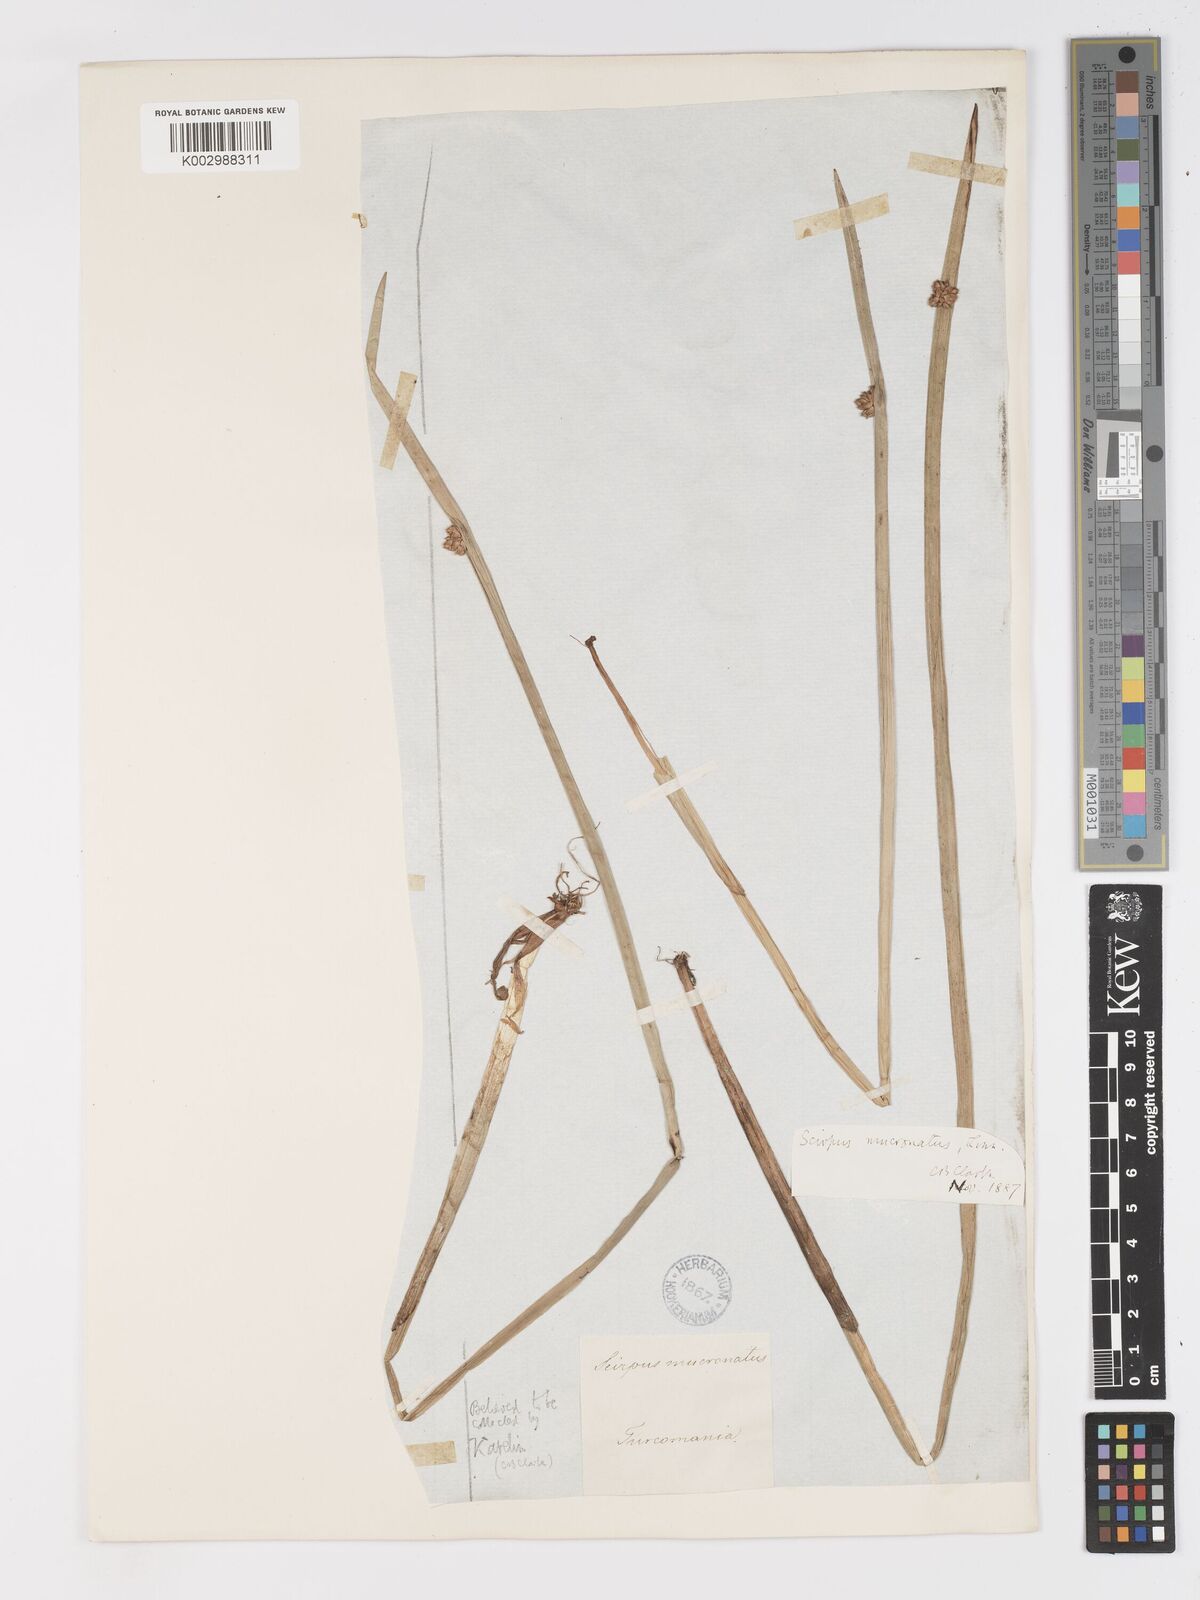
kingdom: Plantae
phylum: Tracheophyta
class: Liliopsida
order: Poales
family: Cyperaceae
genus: Schoenoplectiella
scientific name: Schoenoplectiella mucronata
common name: Bog bulrush
